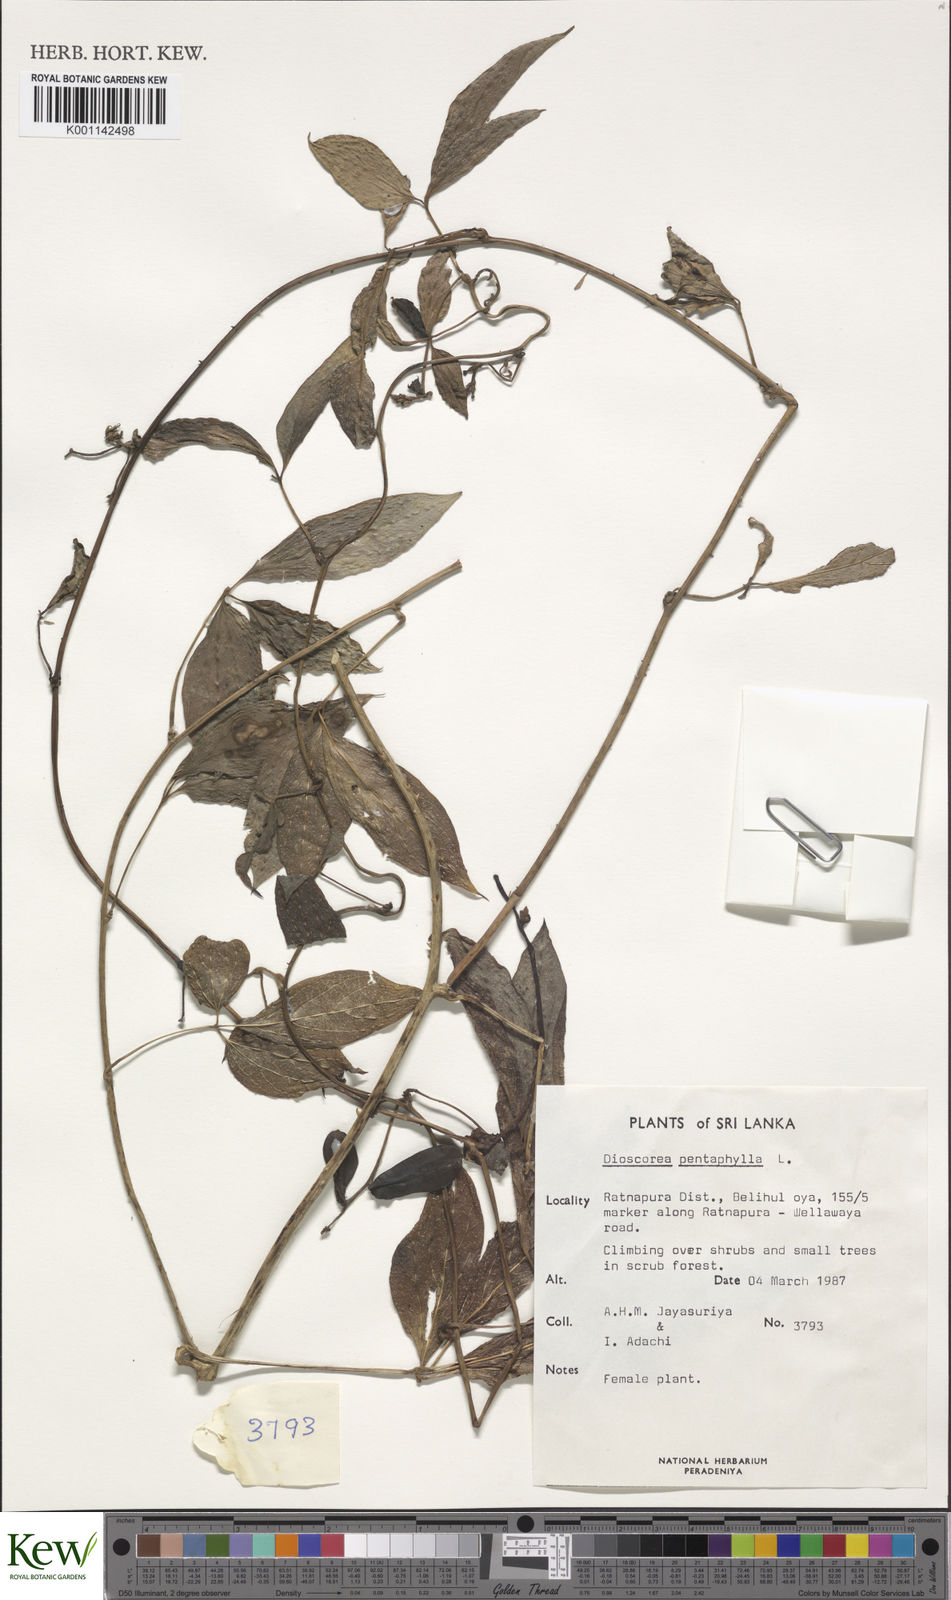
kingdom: Plantae
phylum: Tracheophyta
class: Liliopsida
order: Dioscoreales
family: Dioscoreaceae
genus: Dioscorea
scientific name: Dioscorea pentaphylla
